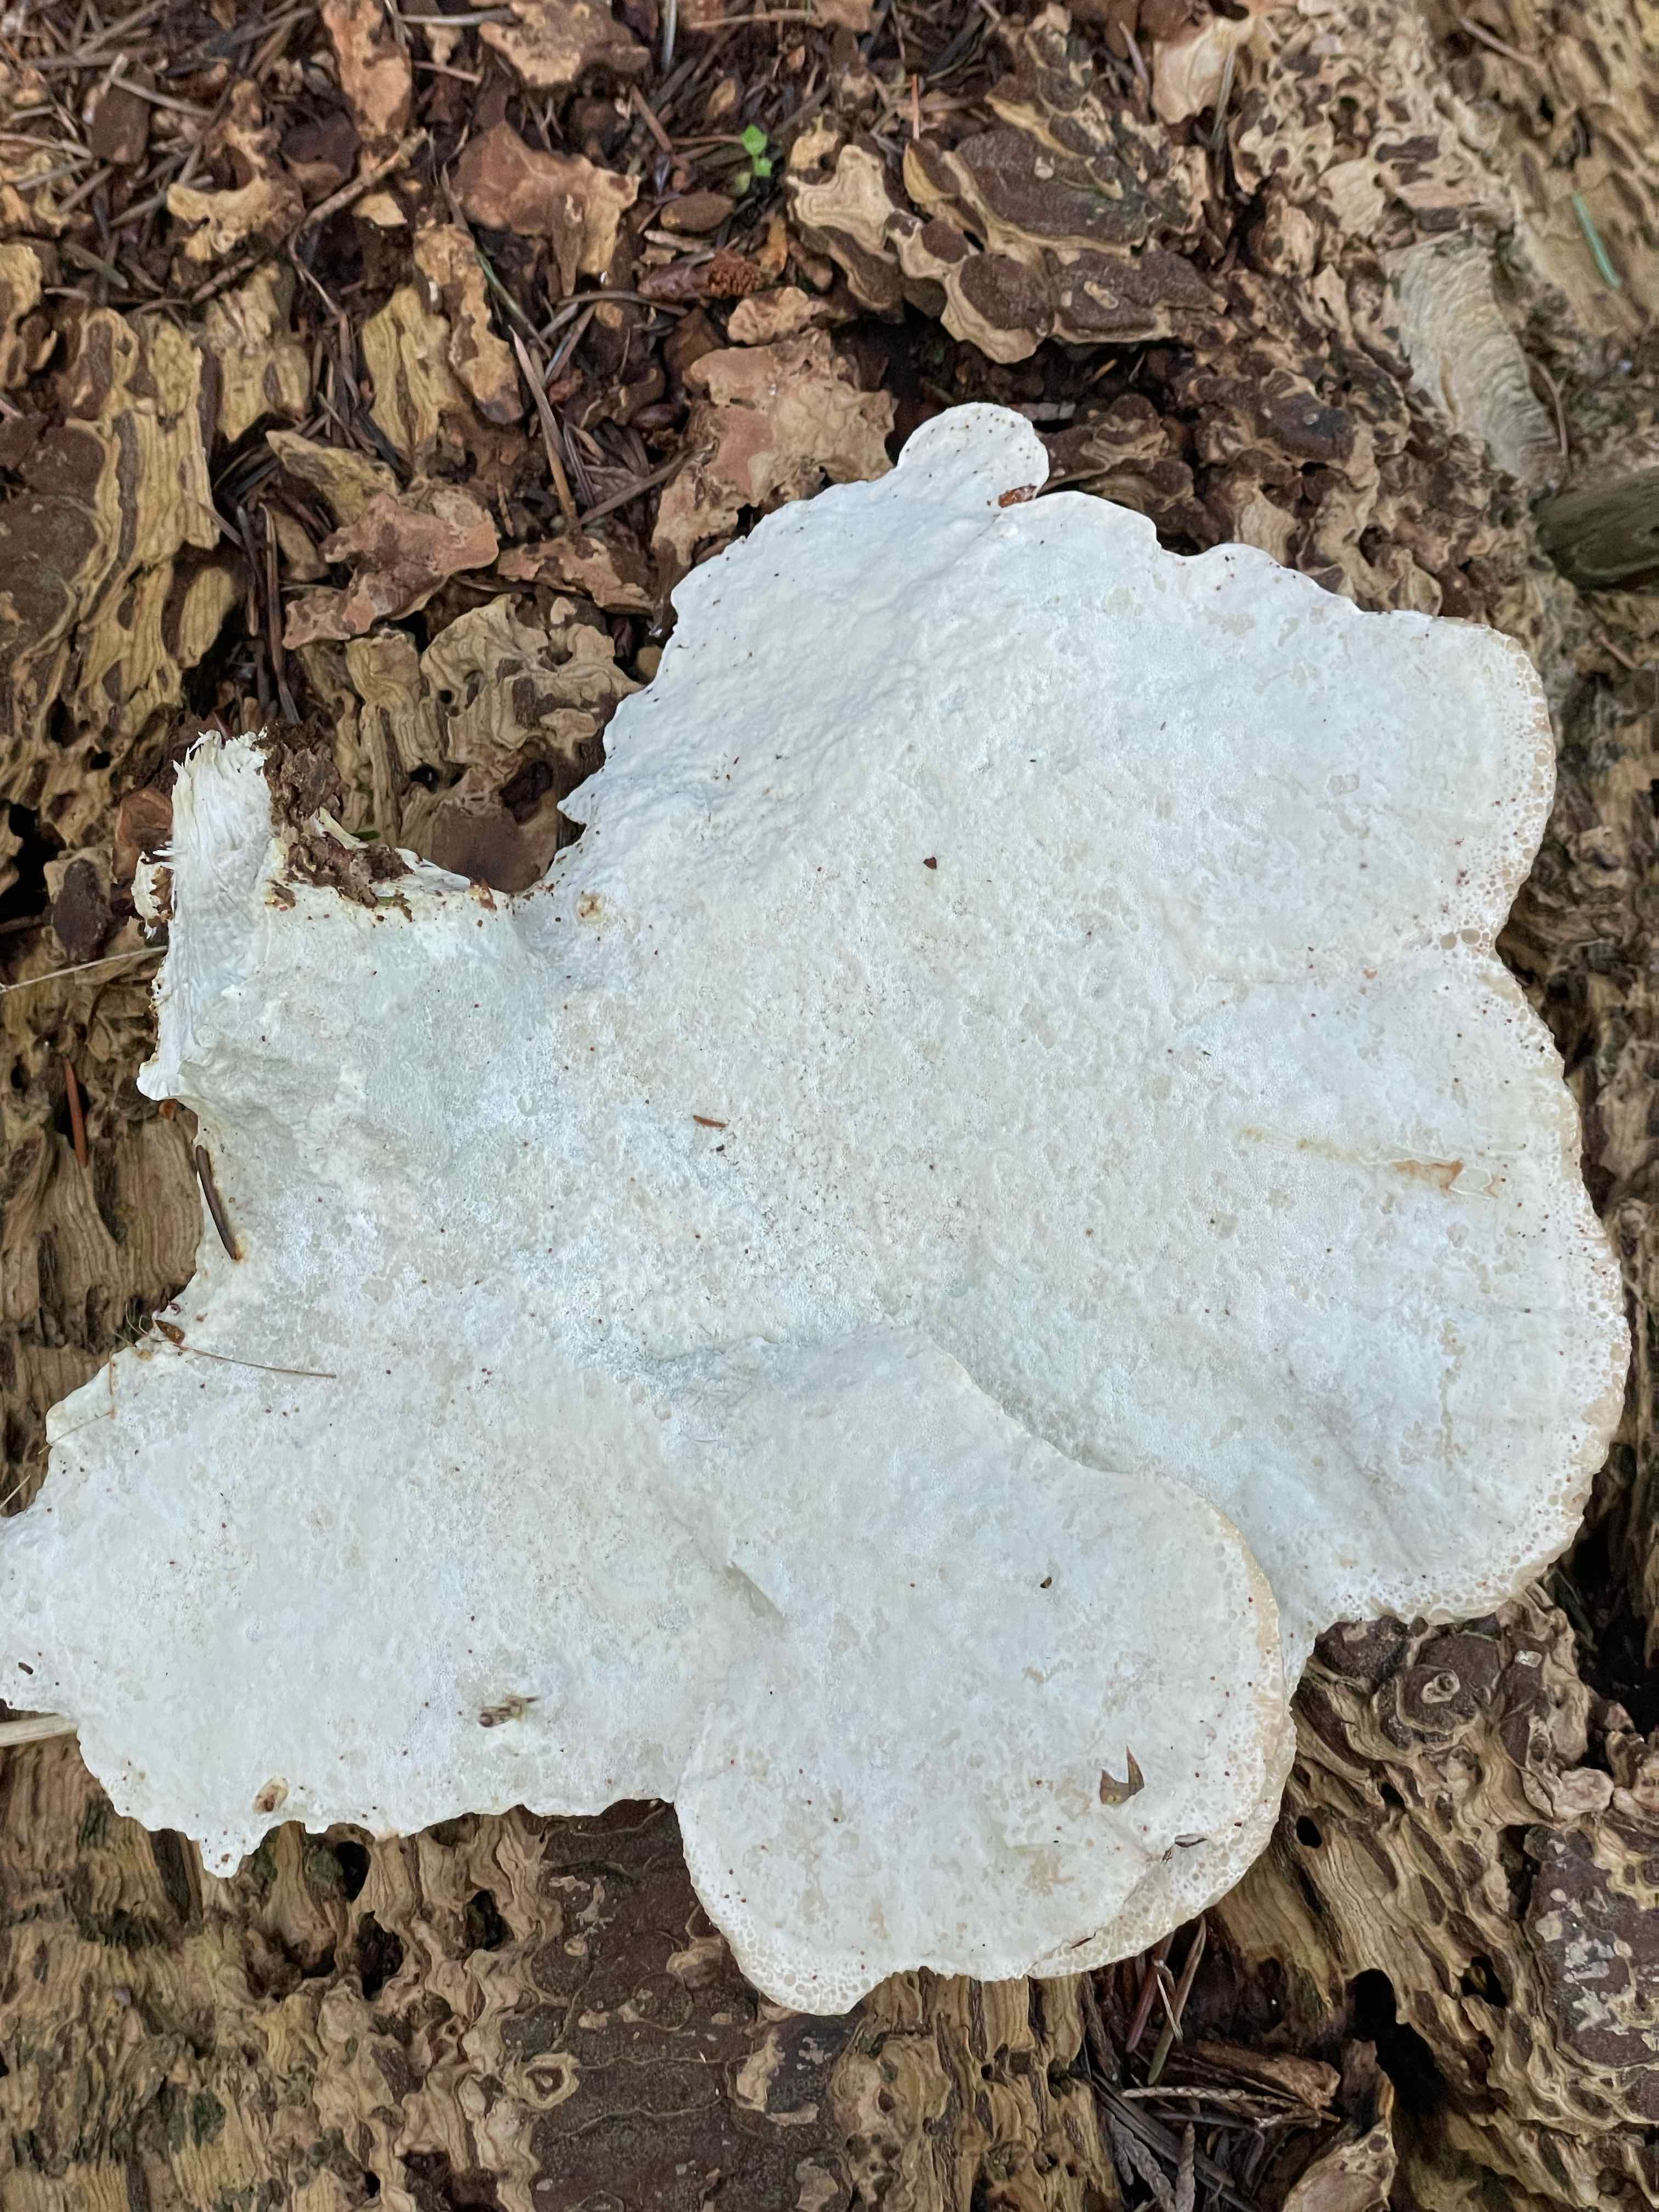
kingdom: Fungi
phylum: Basidiomycota
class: Agaricomycetes
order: Polyporales
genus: Calcipostia
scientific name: Calcipostia guttulata
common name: dråbe-kødporesvamp
